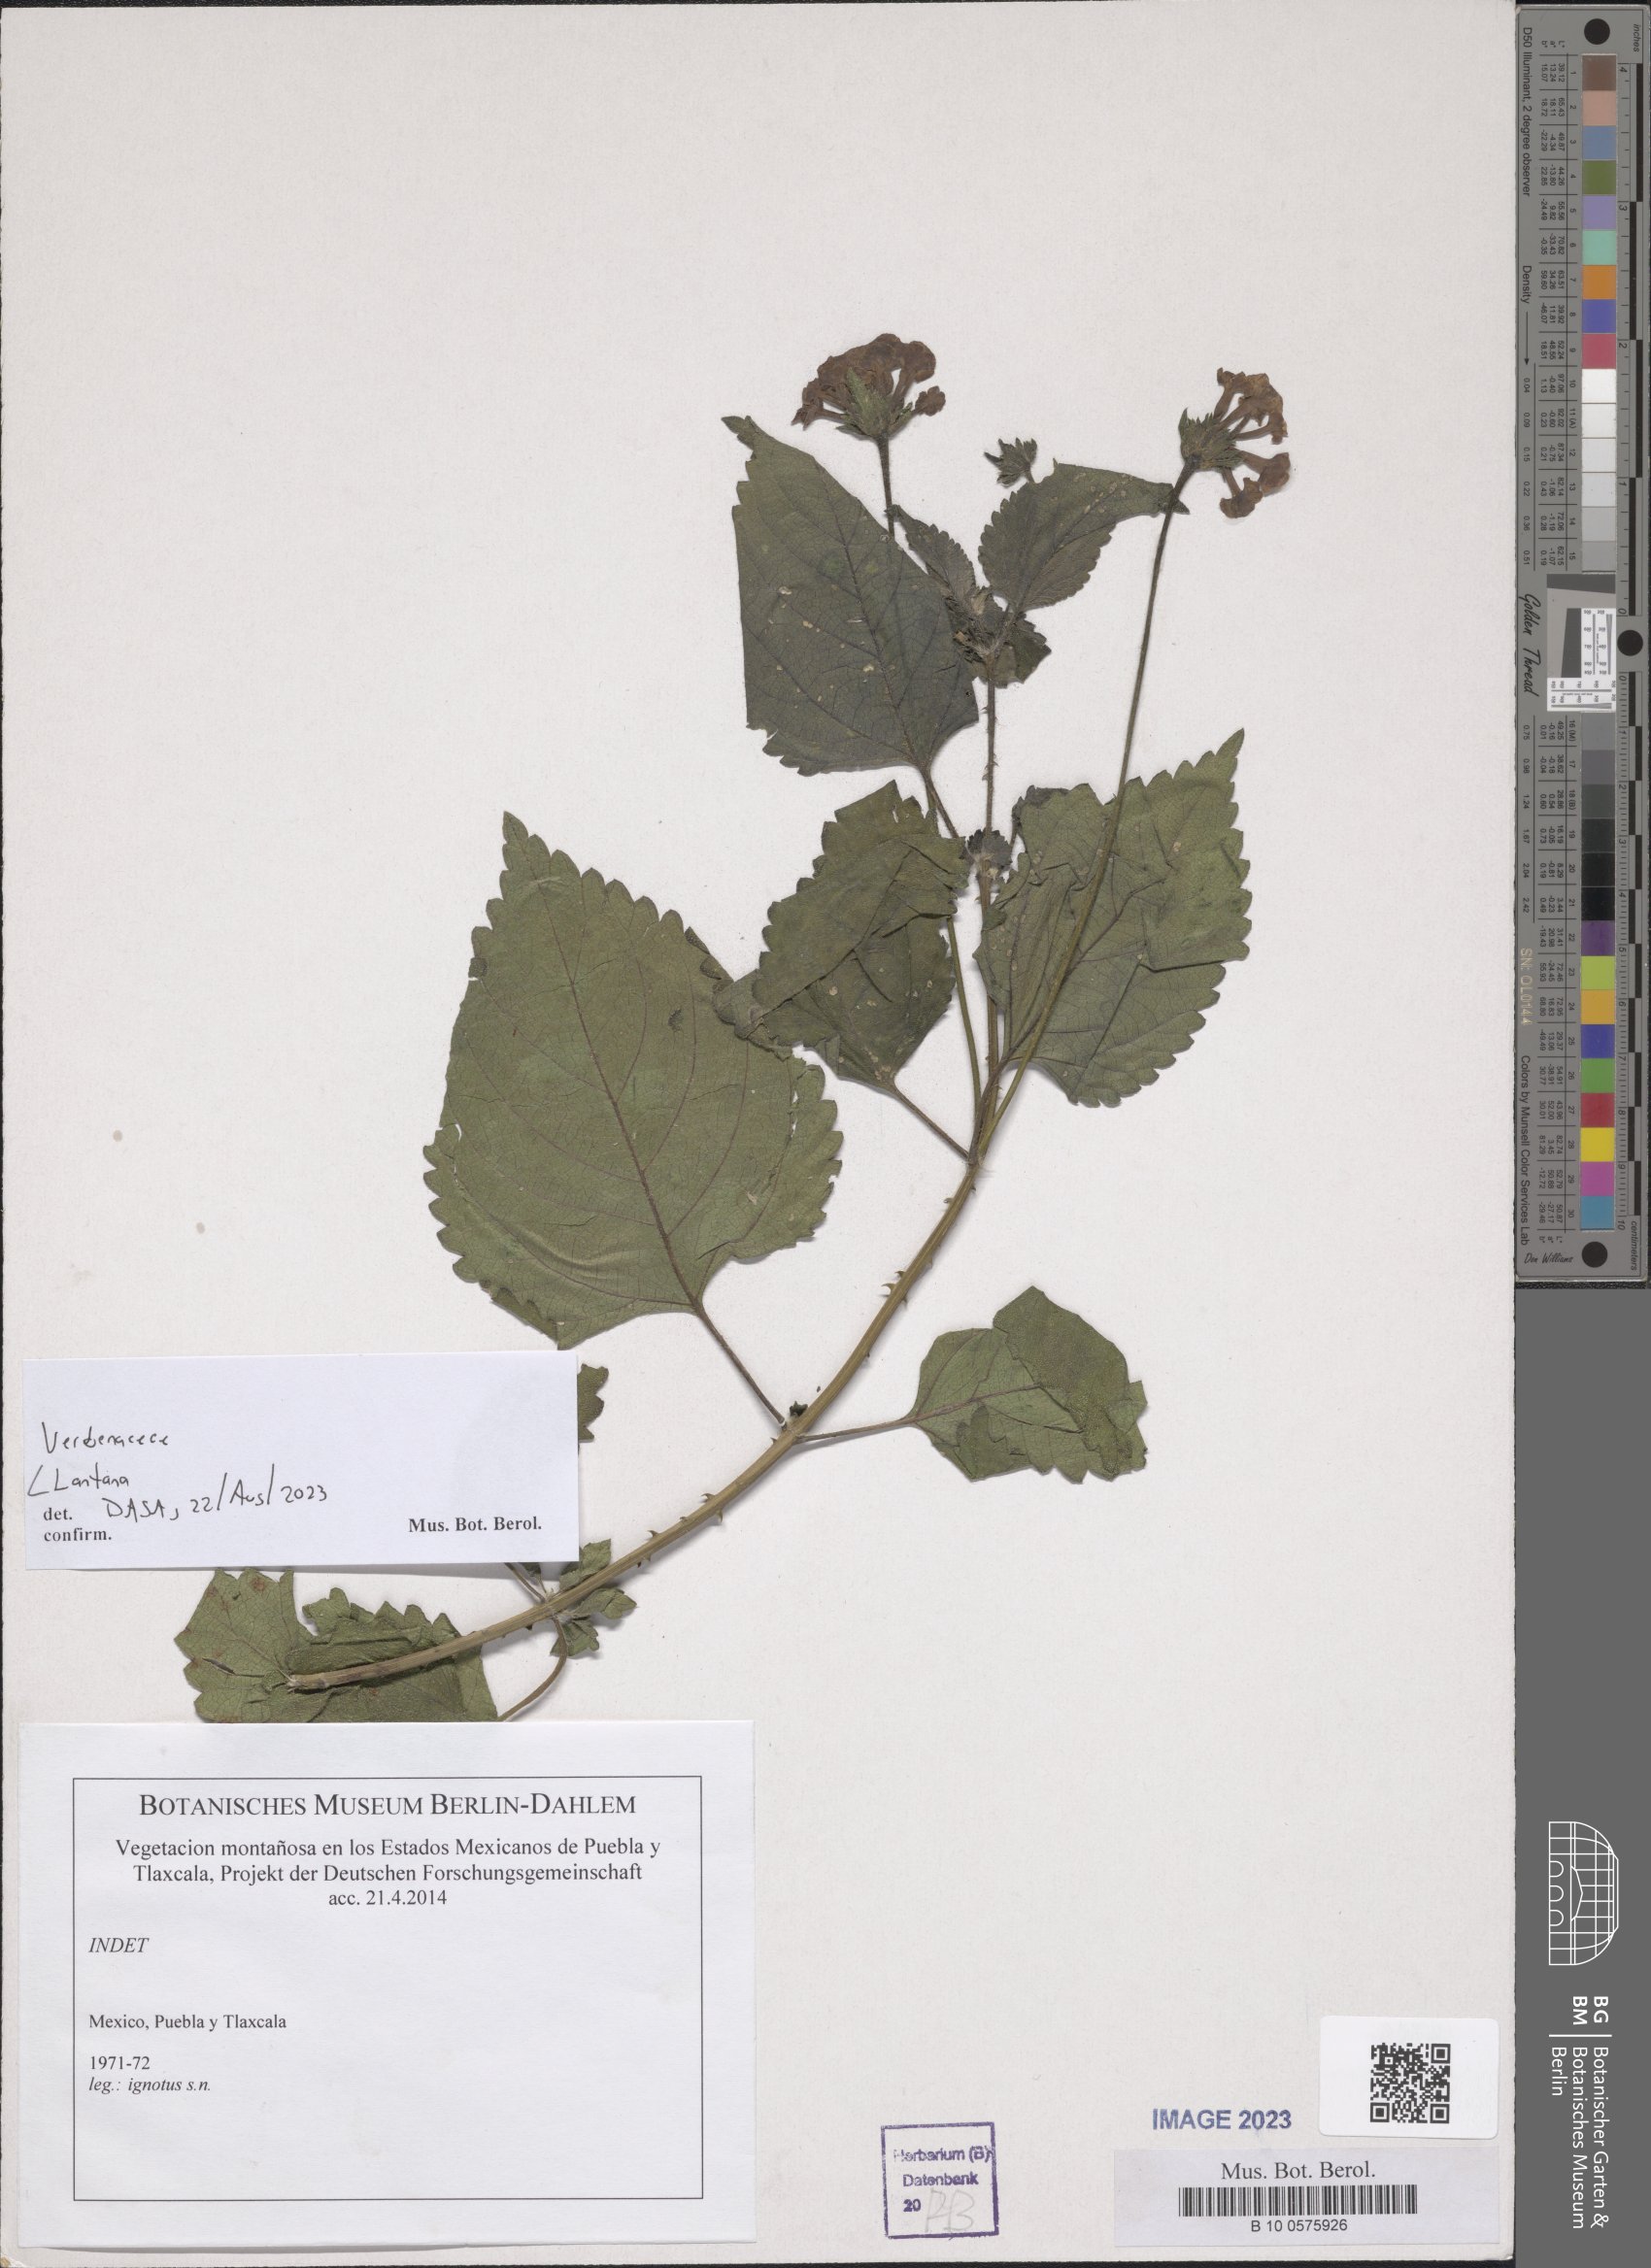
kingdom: Plantae
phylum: Tracheophyta
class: Magnoliopsida
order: Lamiales
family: Verbenaceae
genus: Lantana
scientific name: Lantana
